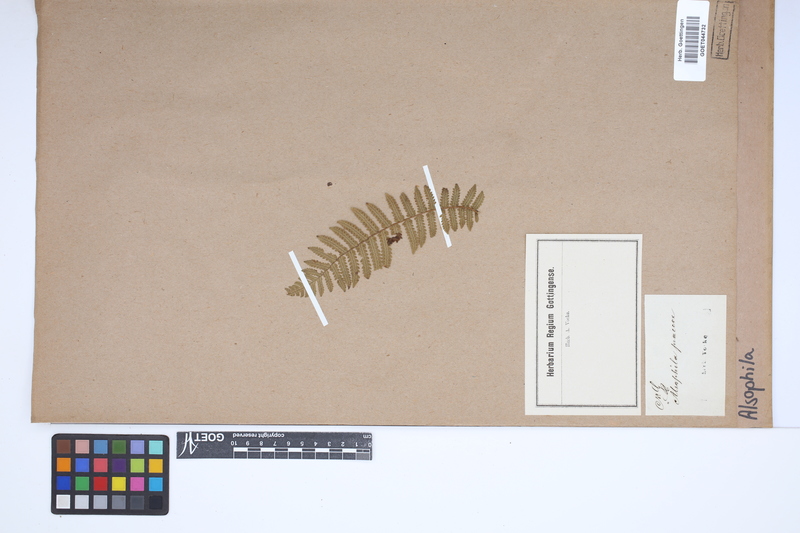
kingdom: Plantae
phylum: Tracheophyta
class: Polypodiopsida
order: Cyatheales
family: Cyatheaceae
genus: Alsophila
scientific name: Alsophila
